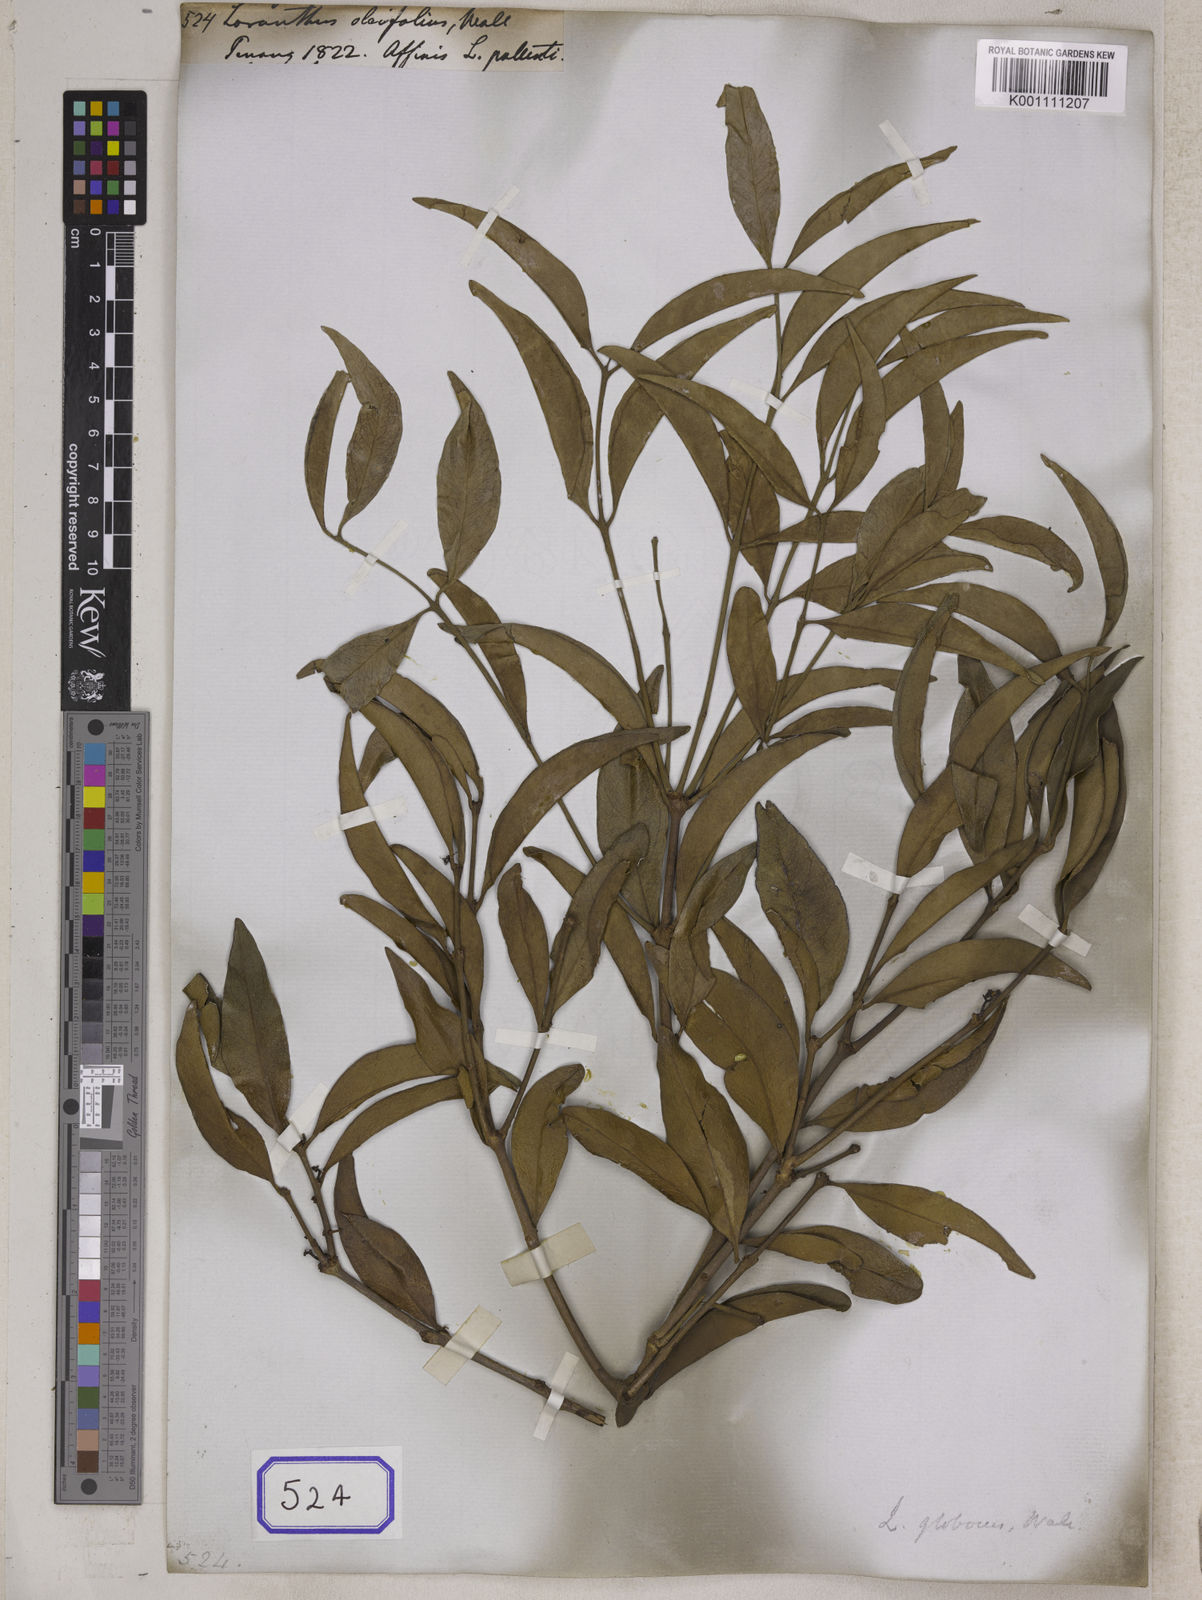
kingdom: Plantae
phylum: Tracheophyta
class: Magnoliopsida
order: Santalales
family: Loranthaceae
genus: Loranthus
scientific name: Loranthus
